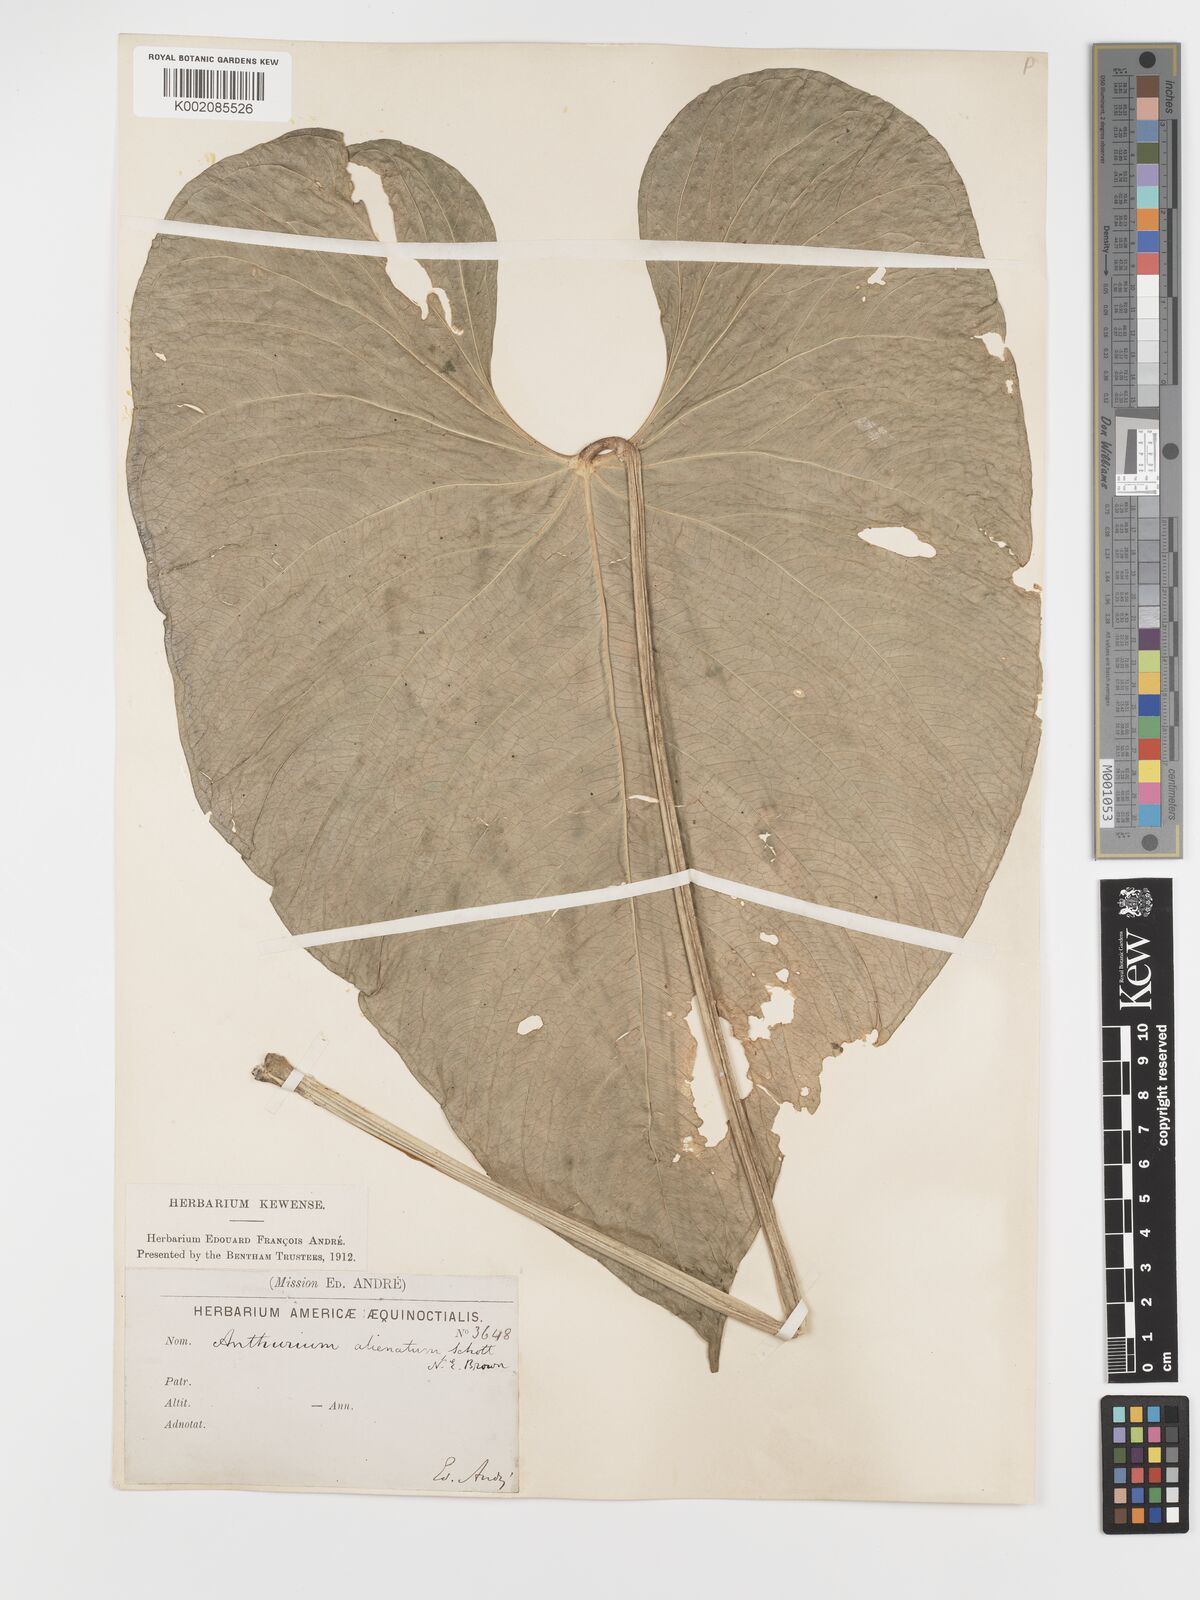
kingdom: Plantae
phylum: Tracheophyta
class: Liliopsida
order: Alismatales
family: Araceae
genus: Anthurium
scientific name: Anthurium sagittatum
